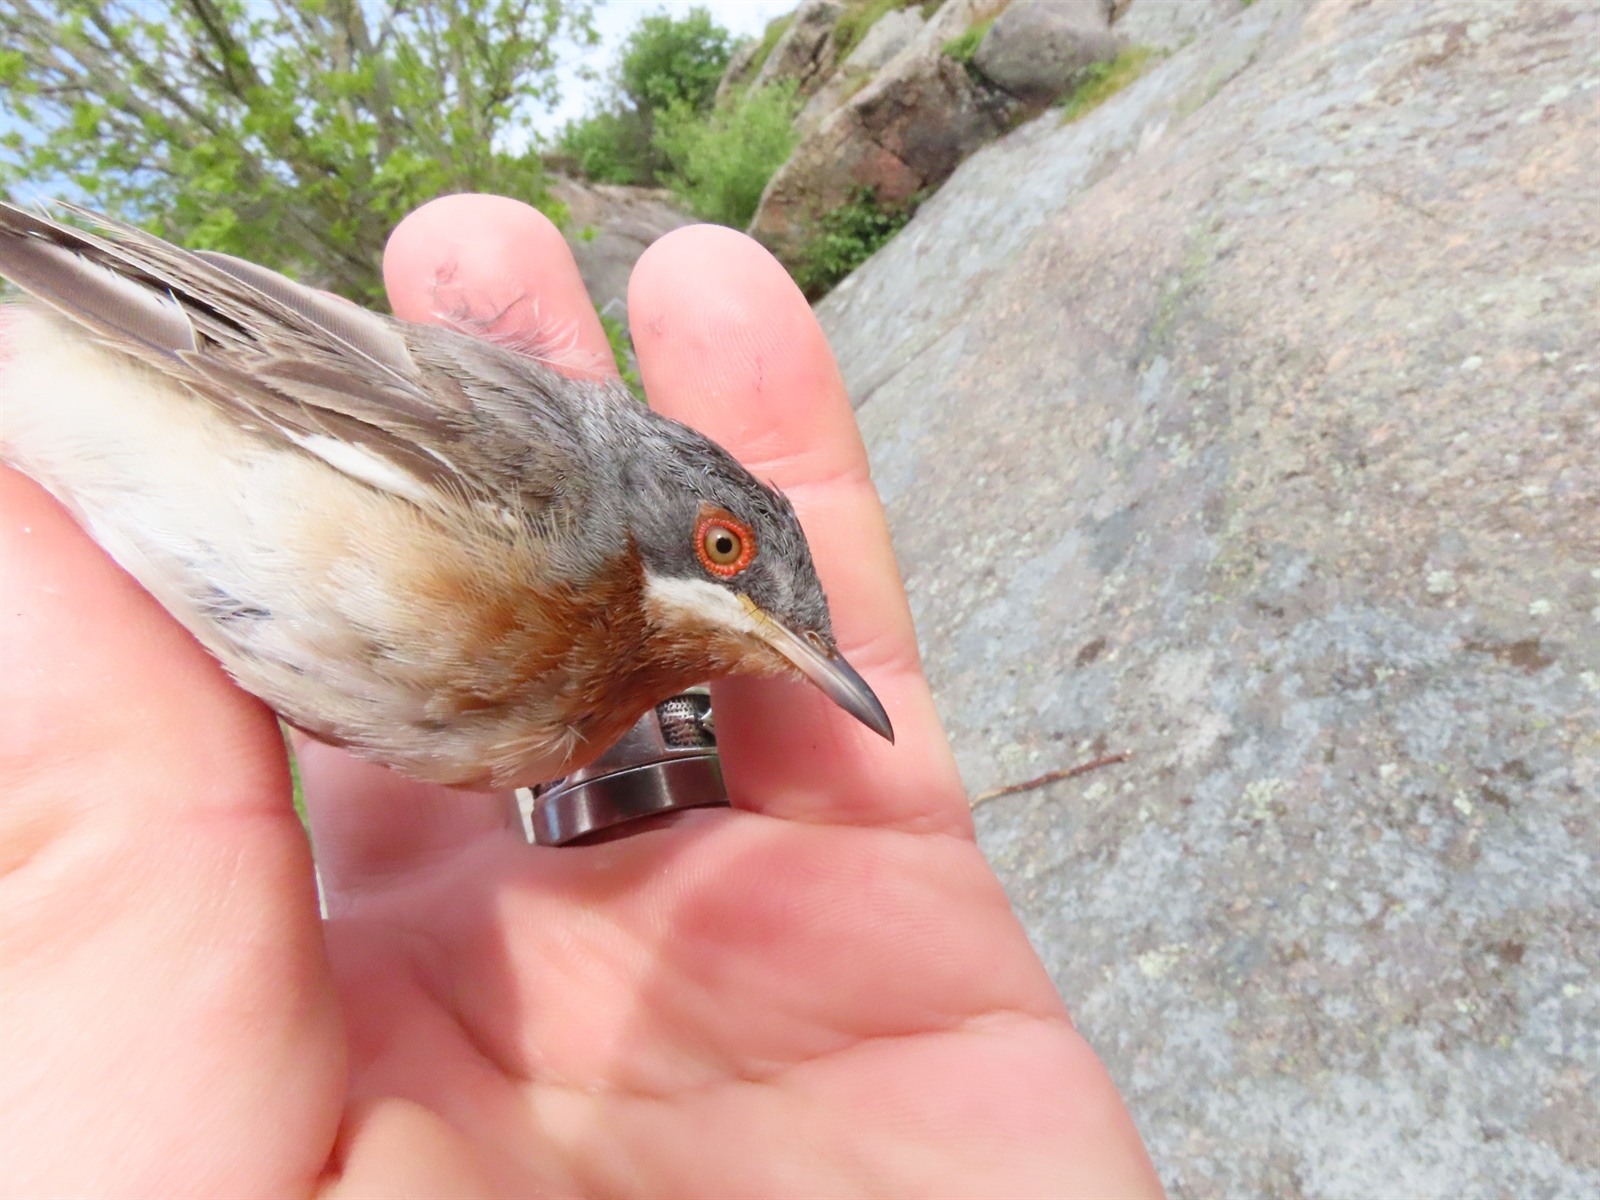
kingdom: Animalia
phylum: Chordata
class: Aves
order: Passeriformes
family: Sylviidae
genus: Curruca
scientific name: Curruca cantillans
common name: Subalpine warbler
